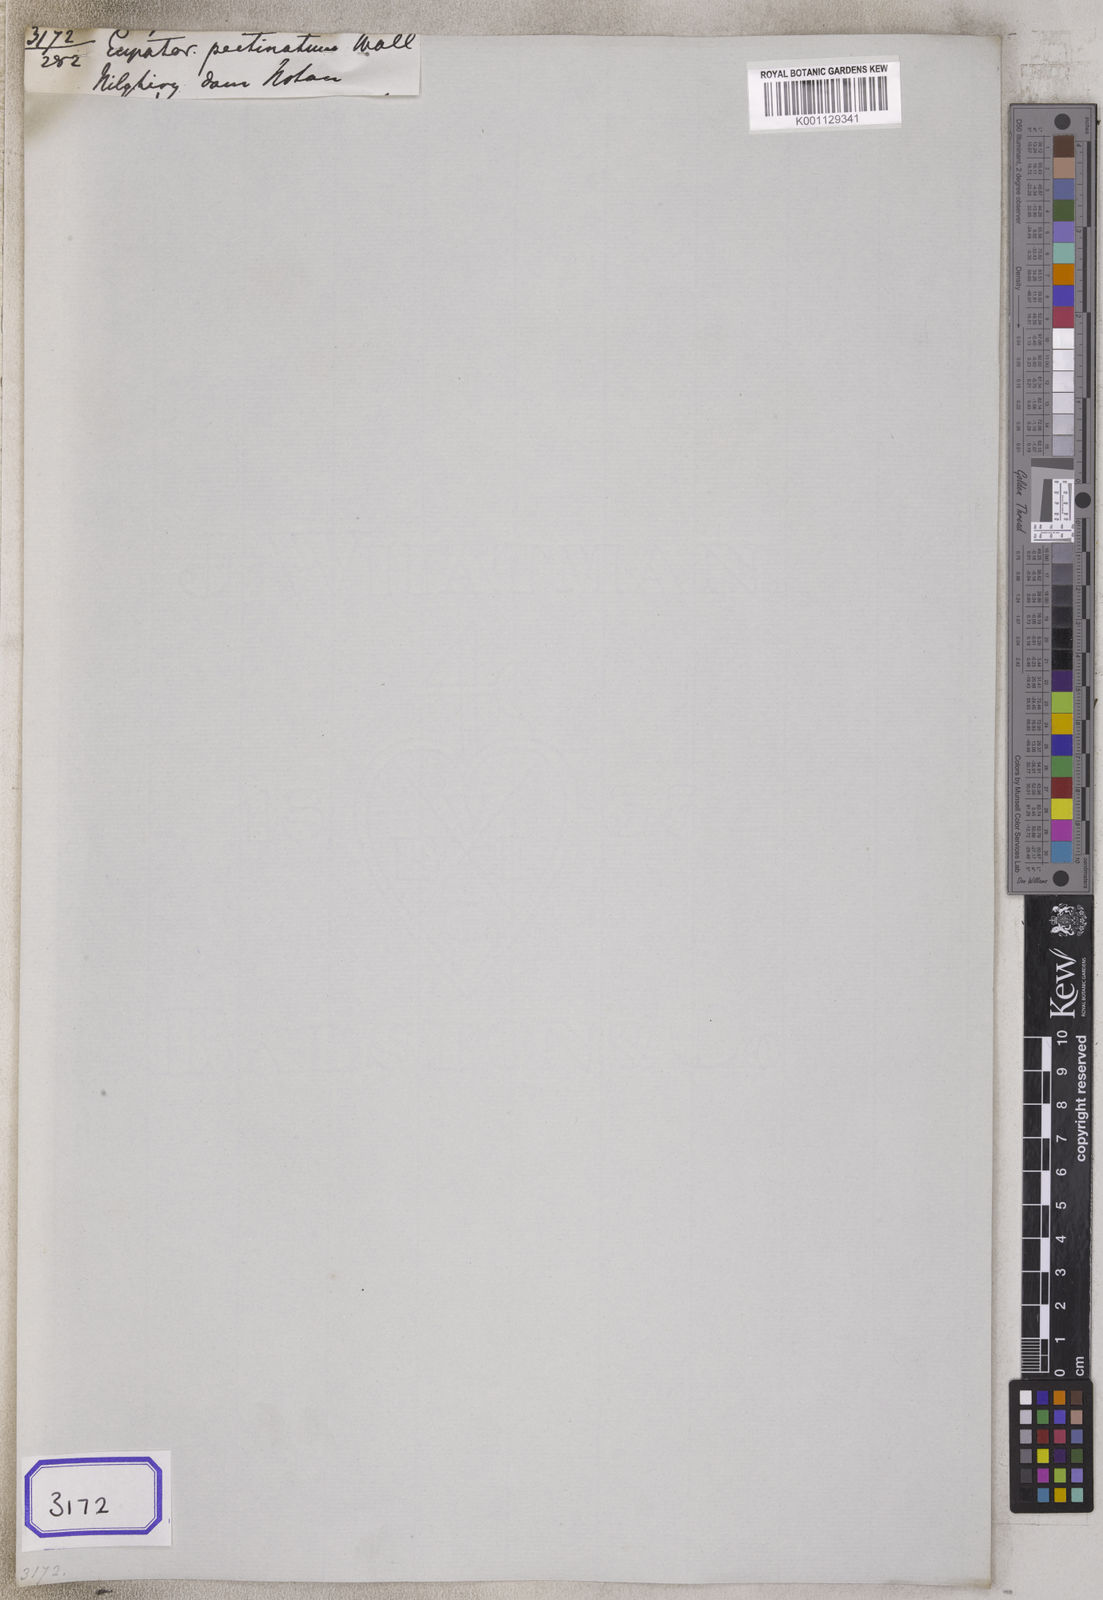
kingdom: Plantae
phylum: Tracheophyta
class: Magnoliopsida
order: Asterales
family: Asteraceae
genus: Eupatorium
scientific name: Eupatorium
